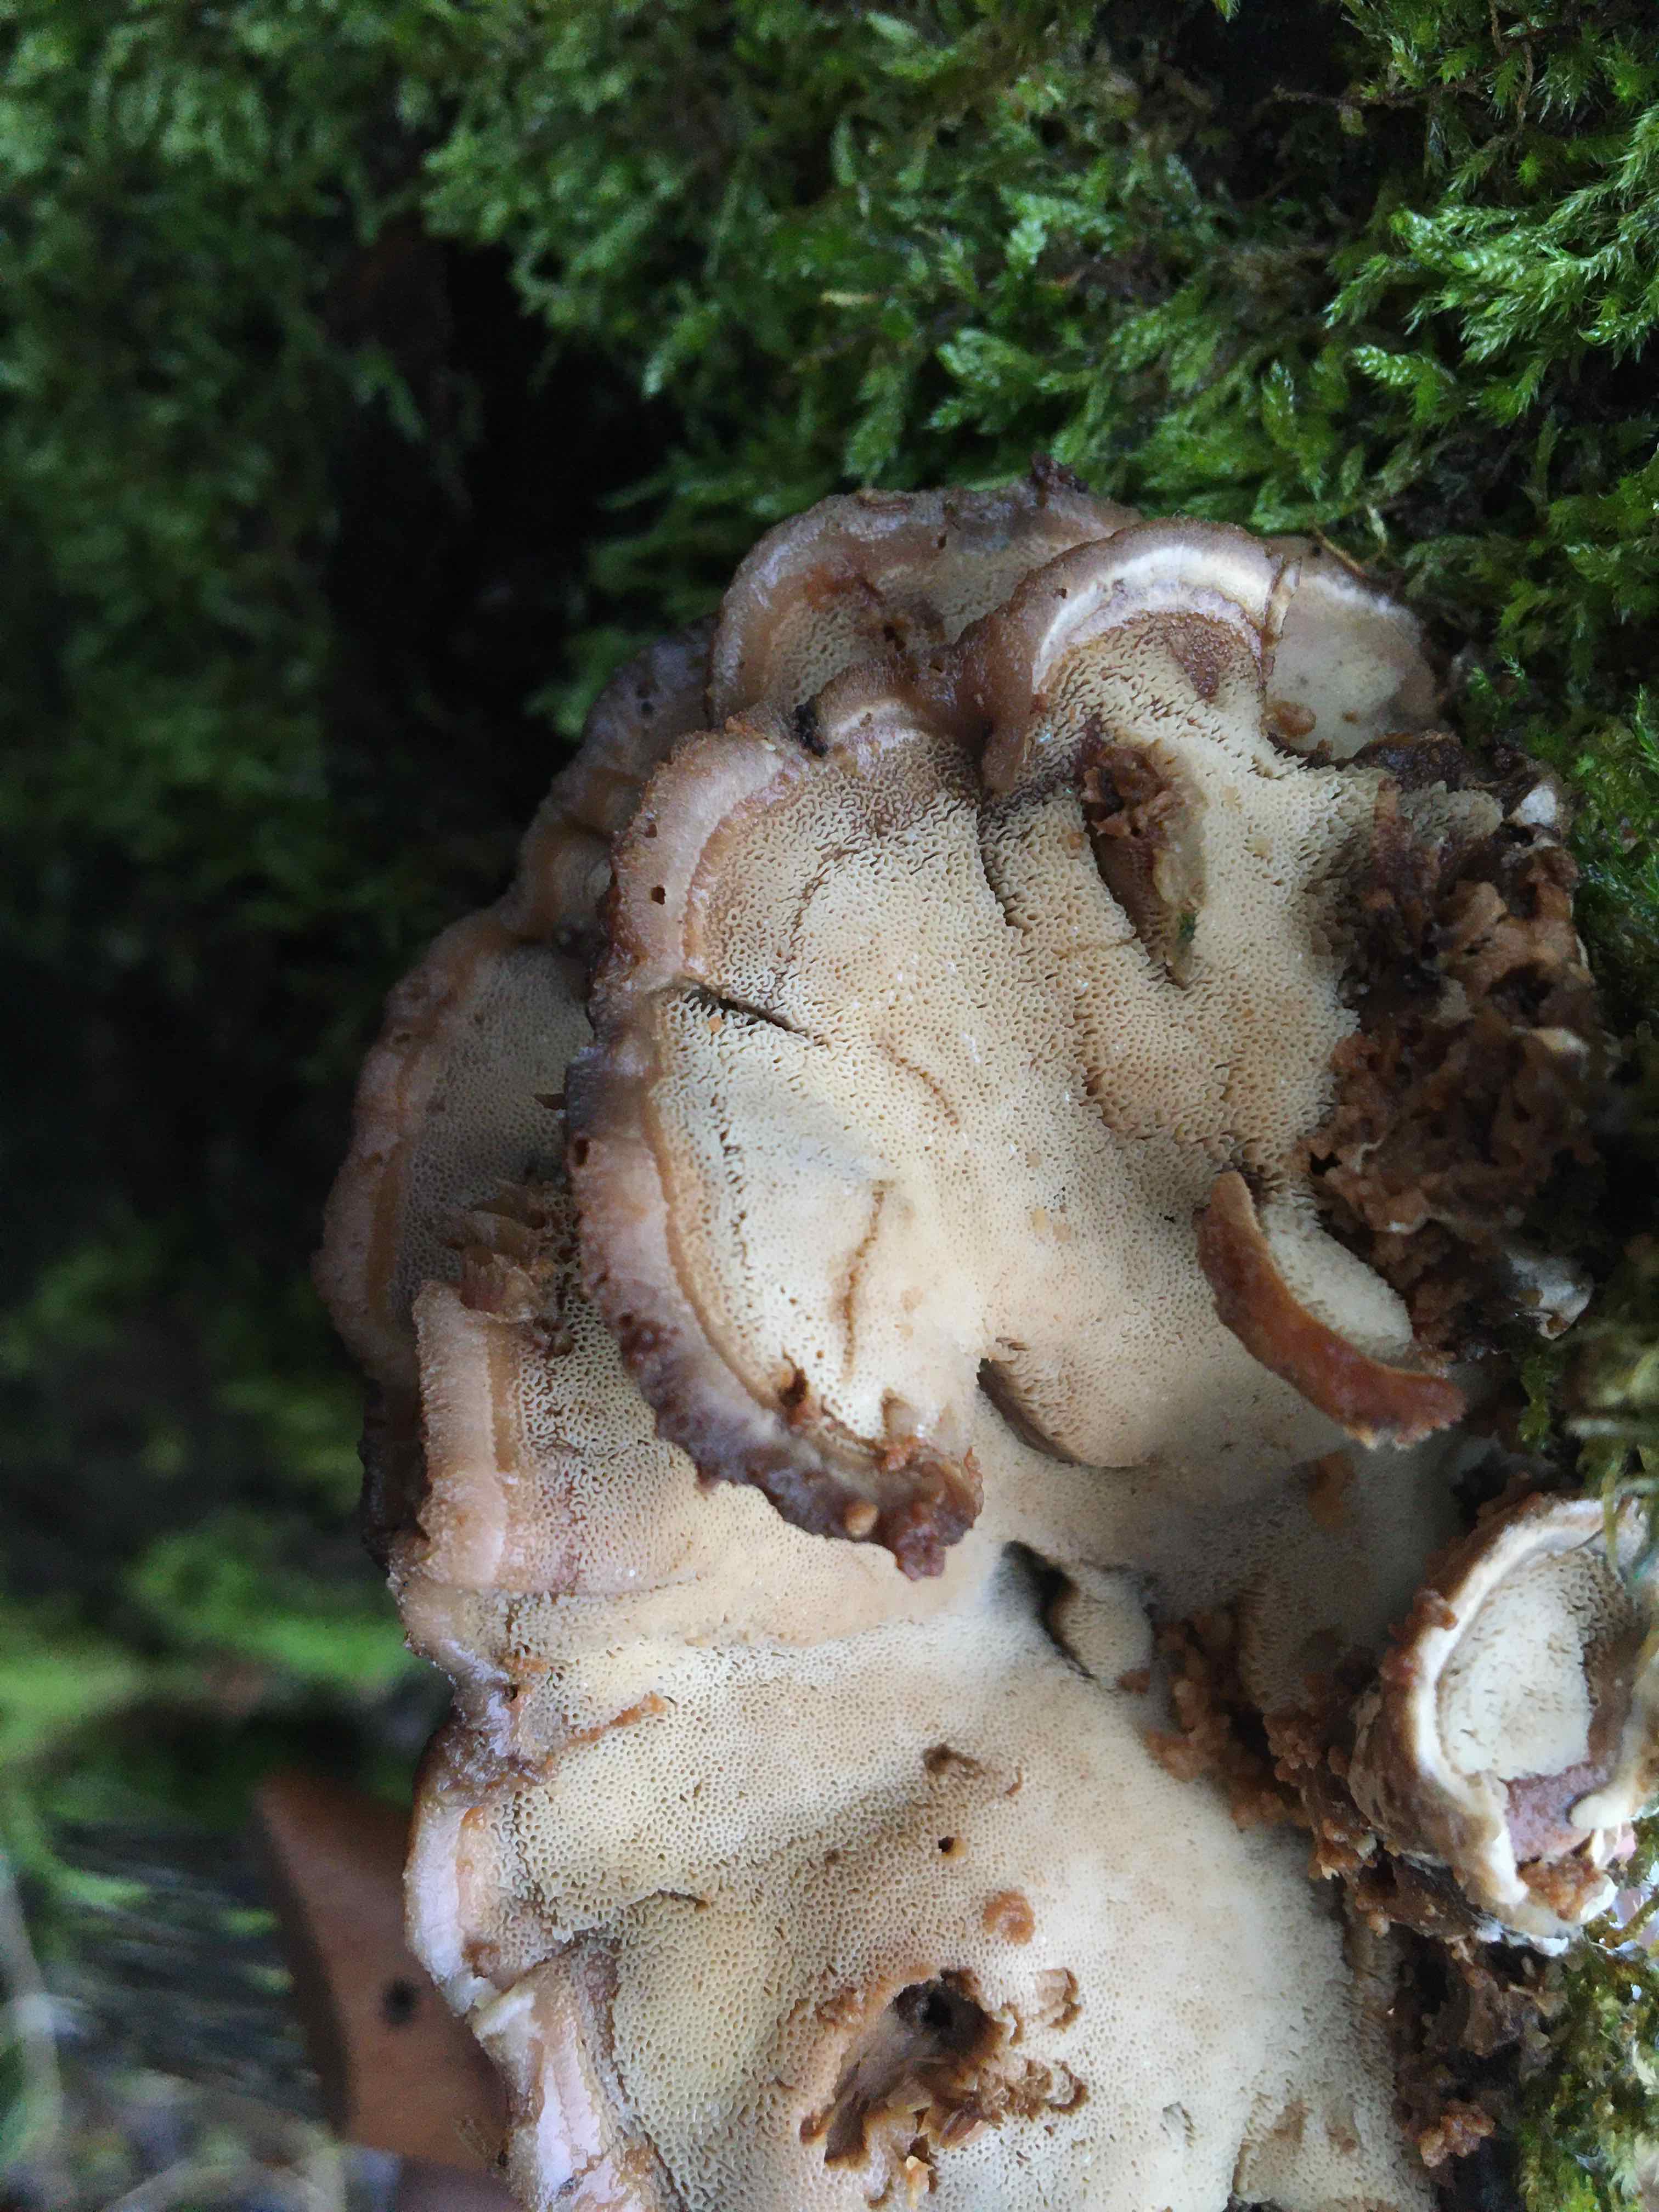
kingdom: Fungi
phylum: Basidiomycota
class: Agaricomycetes
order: Polyporales
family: Phanerochaetaceae
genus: Bjerkandera
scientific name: Bjerkandera fumosa
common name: grågul sodporesvamp
